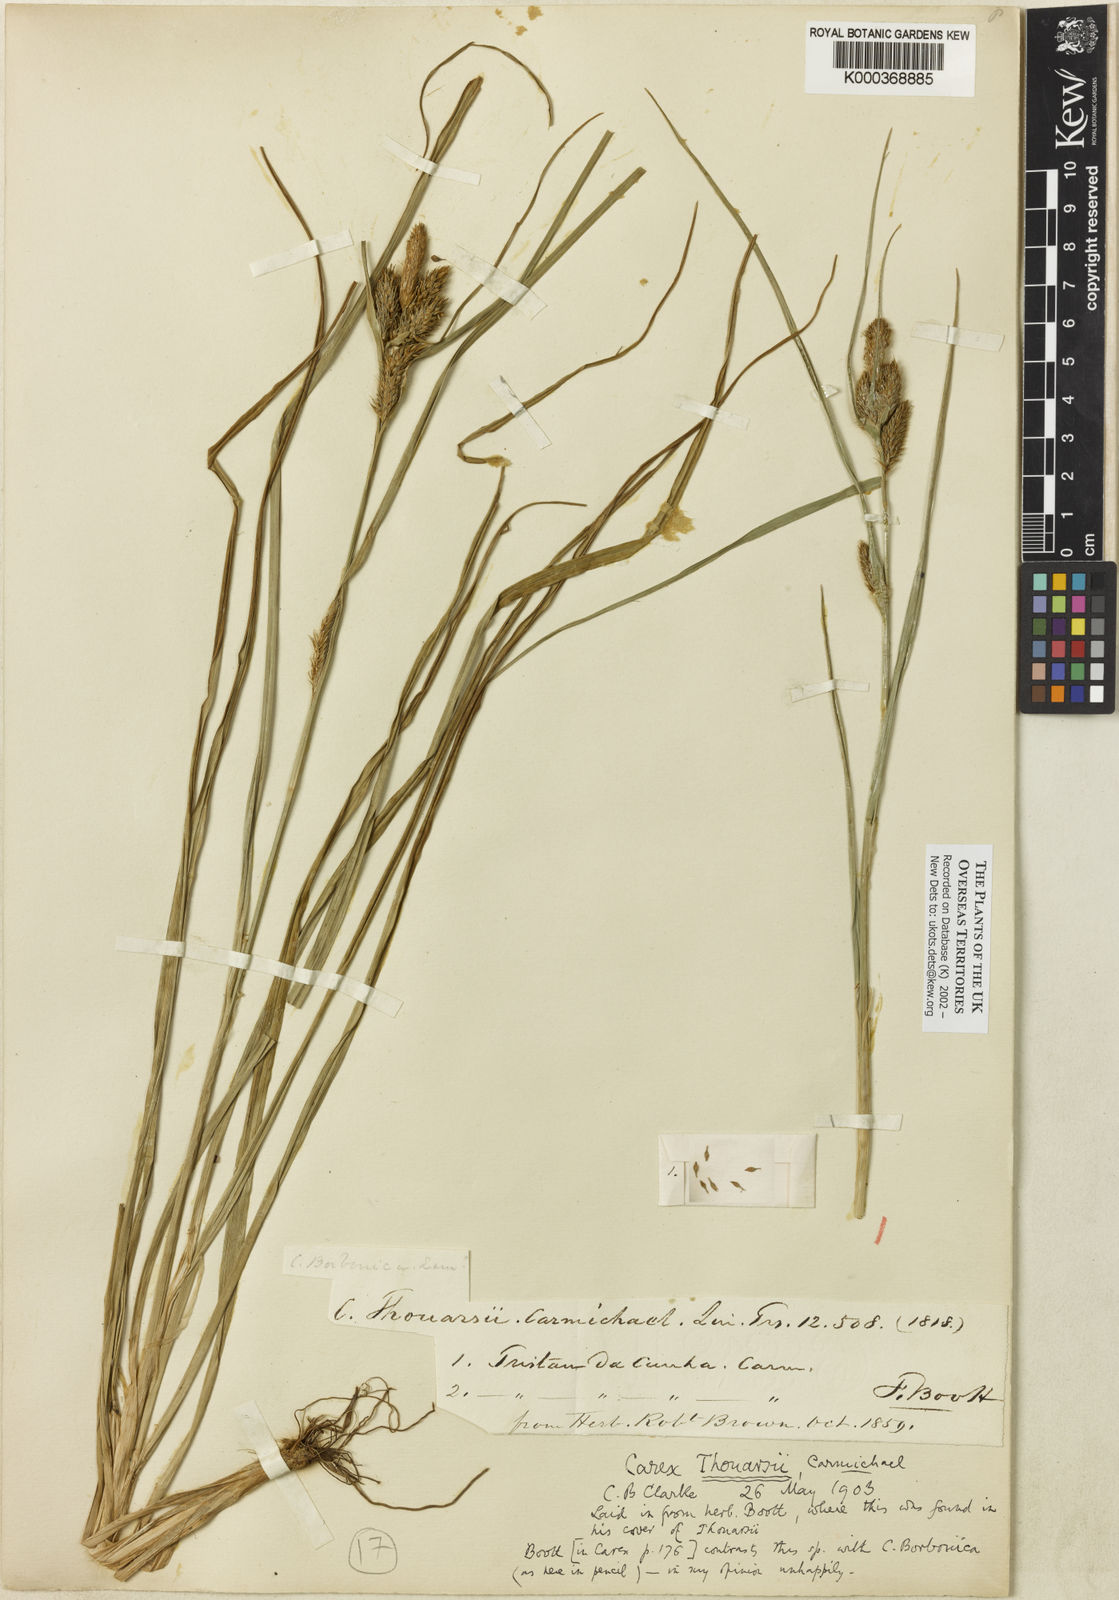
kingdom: Plantae
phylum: Tracheophyta
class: Liliopsida
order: Poales
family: Cyperaceae
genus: Carex
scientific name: Carex mannii
